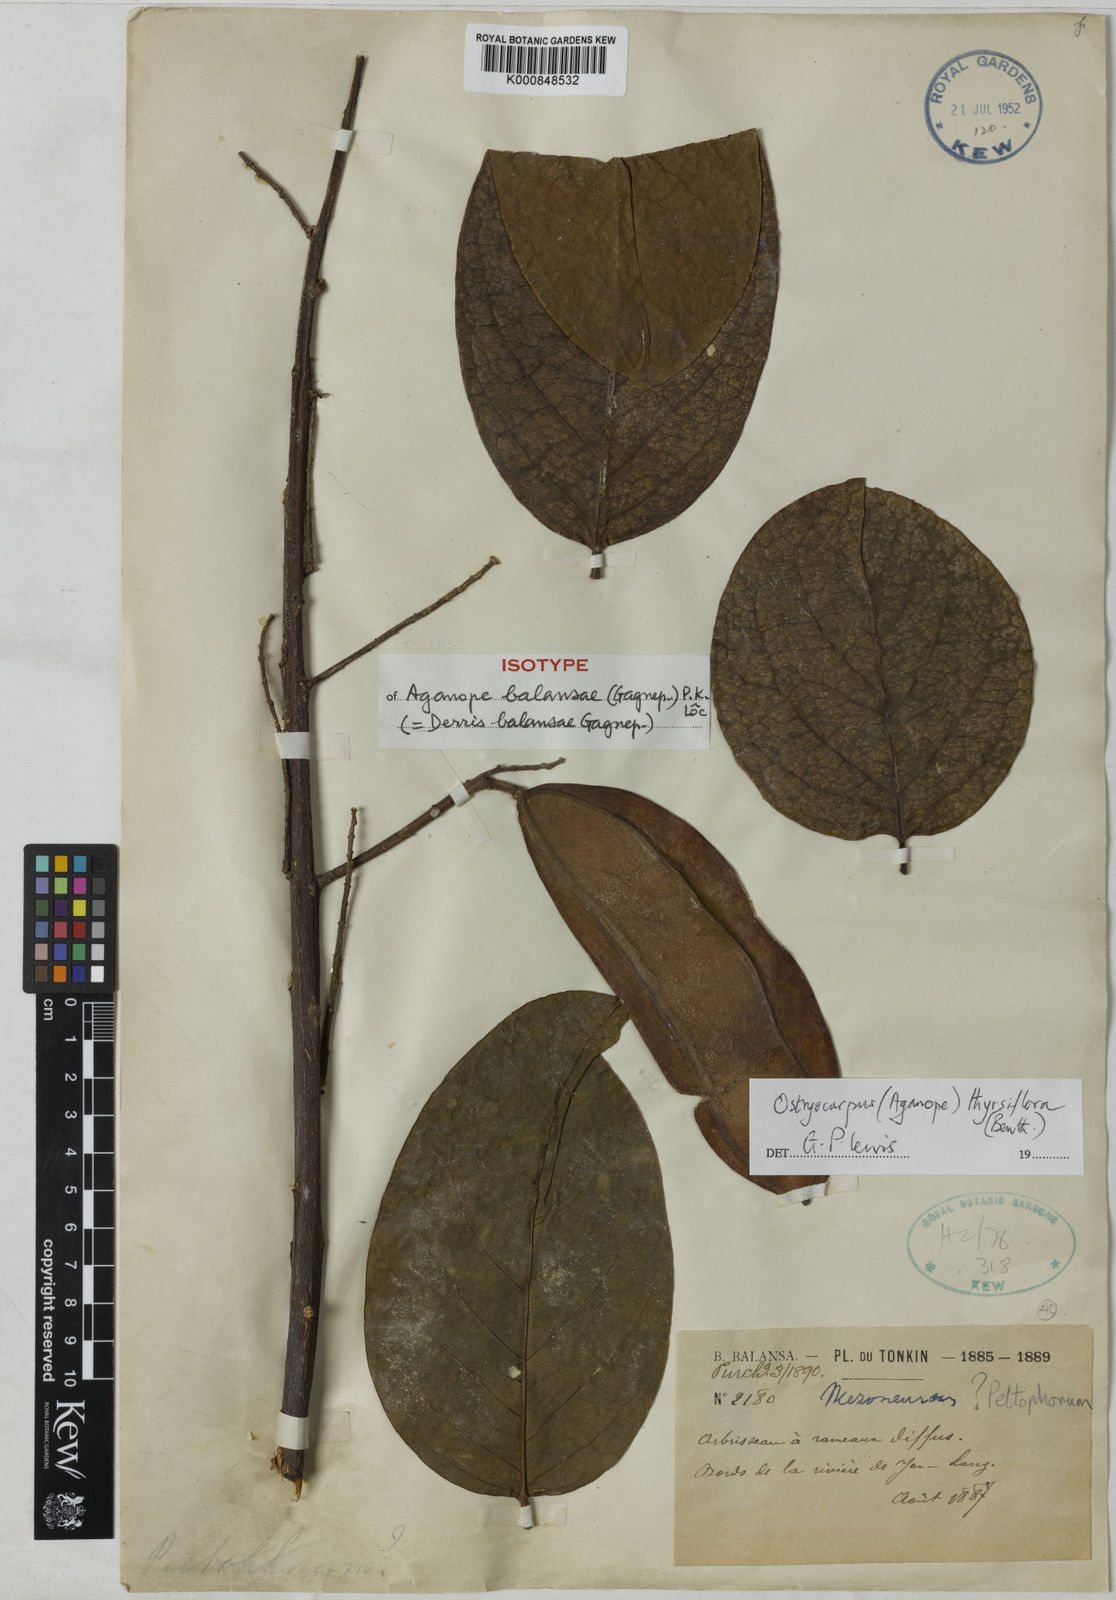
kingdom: Plantae
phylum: Tracheophyta
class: Magnoliopsida
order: Fabales
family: Fabaceae
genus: Aganope
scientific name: Aganope
